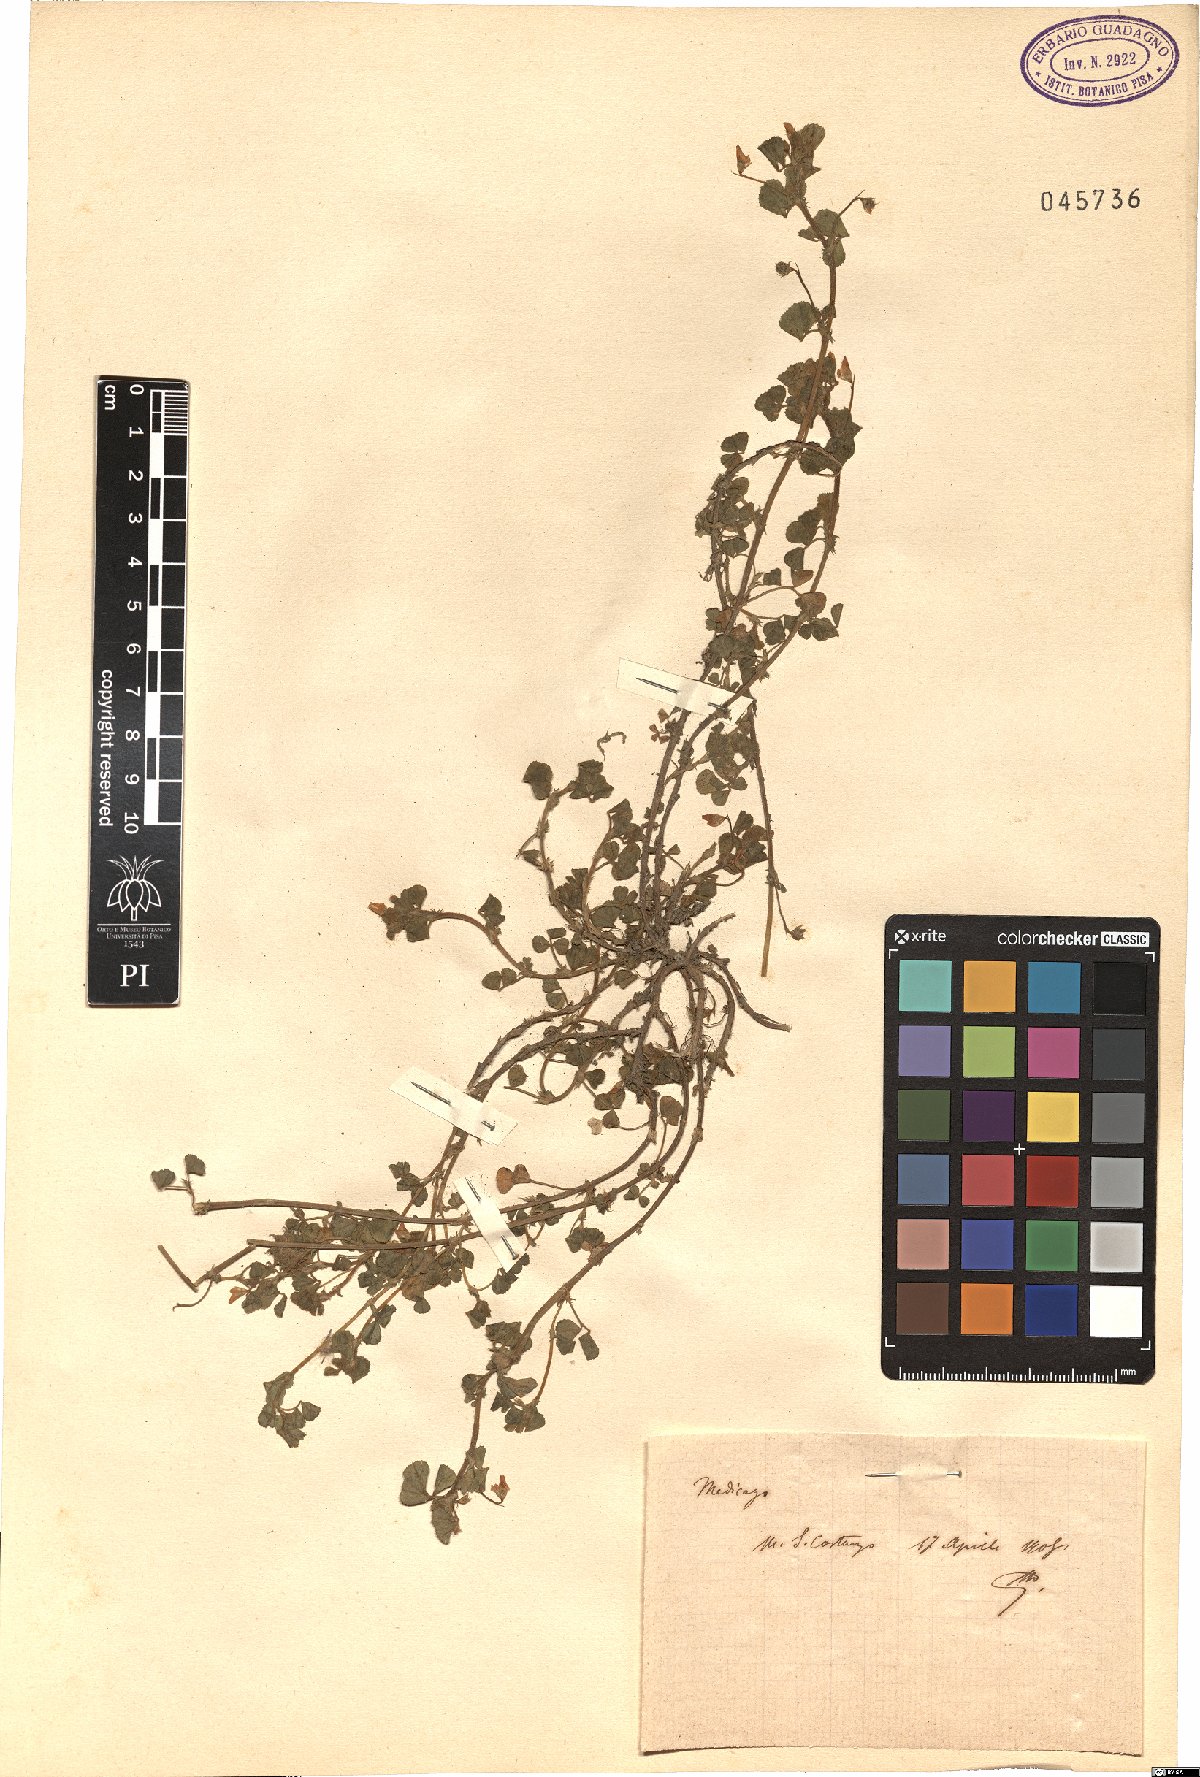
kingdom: Plantae
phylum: Tracheophyta
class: Magnoliopsida
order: Fabales
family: Fabaceae
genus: Medicago
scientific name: Medicago
